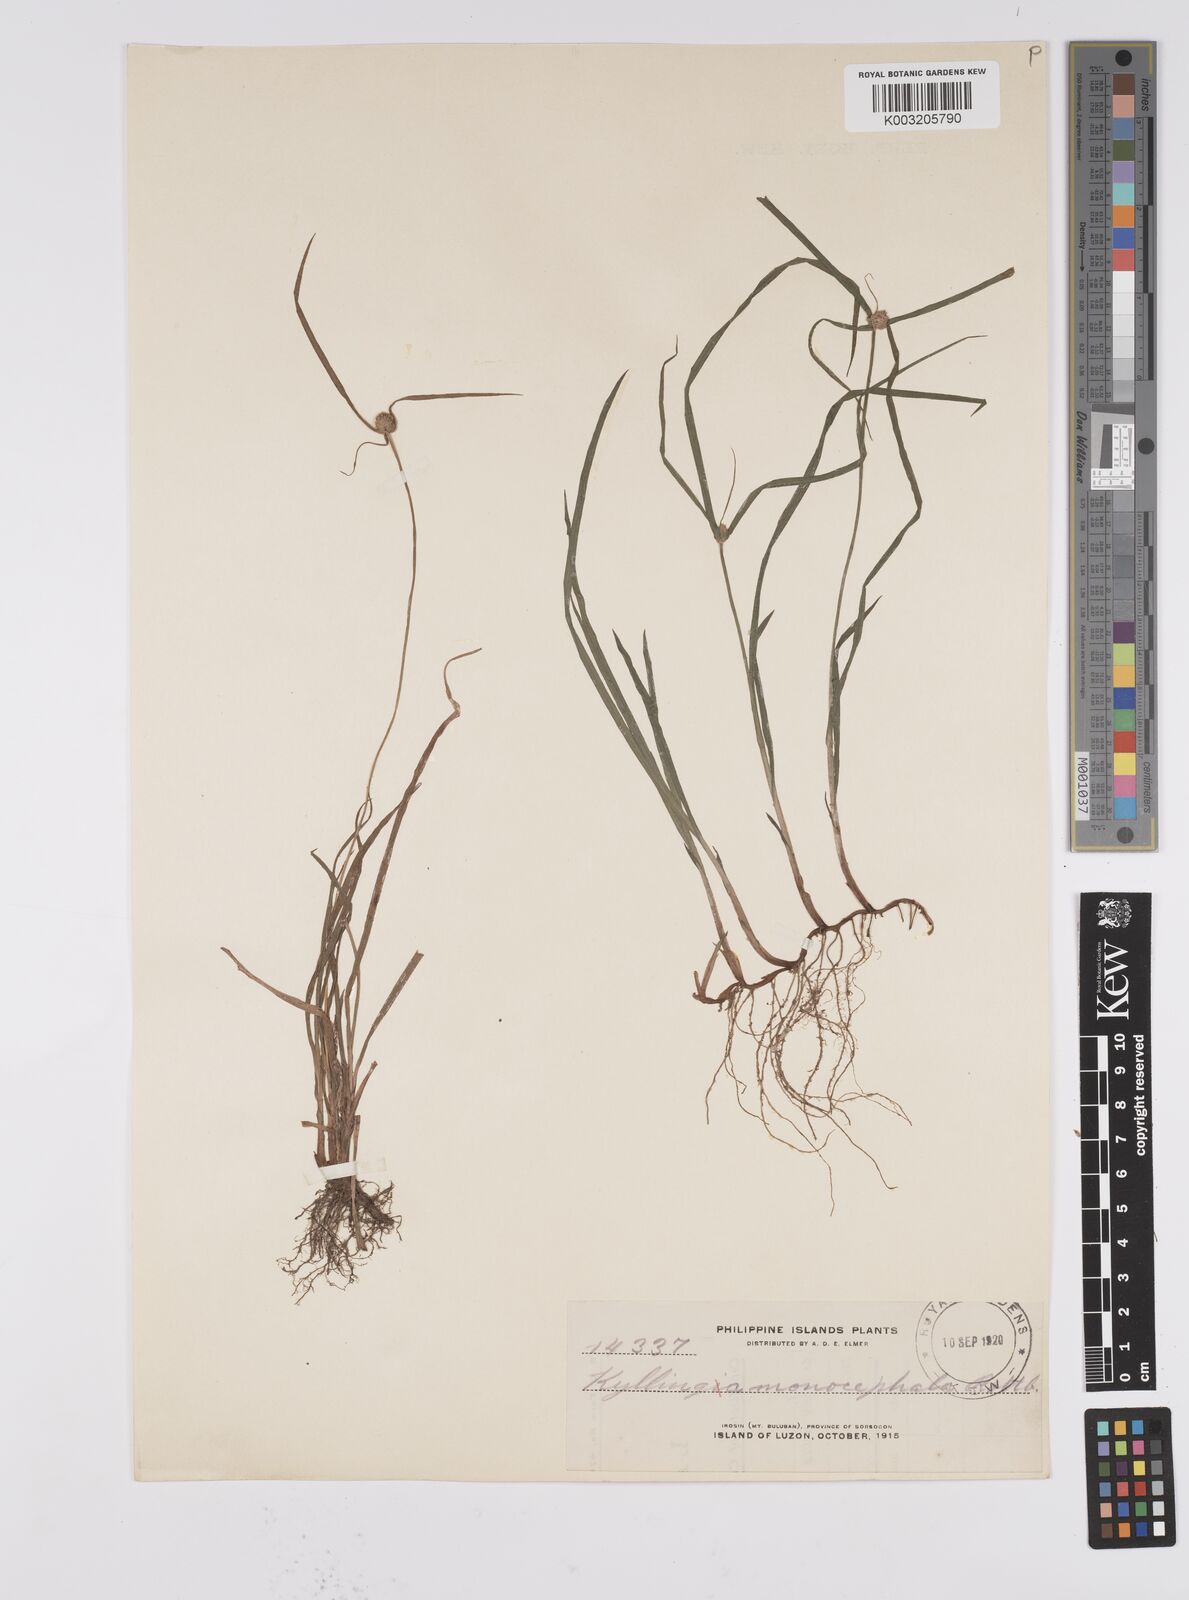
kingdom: Plantae
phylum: Tracheophyta
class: Liliopsida
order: Poales
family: Cyperaceae
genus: Cyperus
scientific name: Cyperus nemoralis
